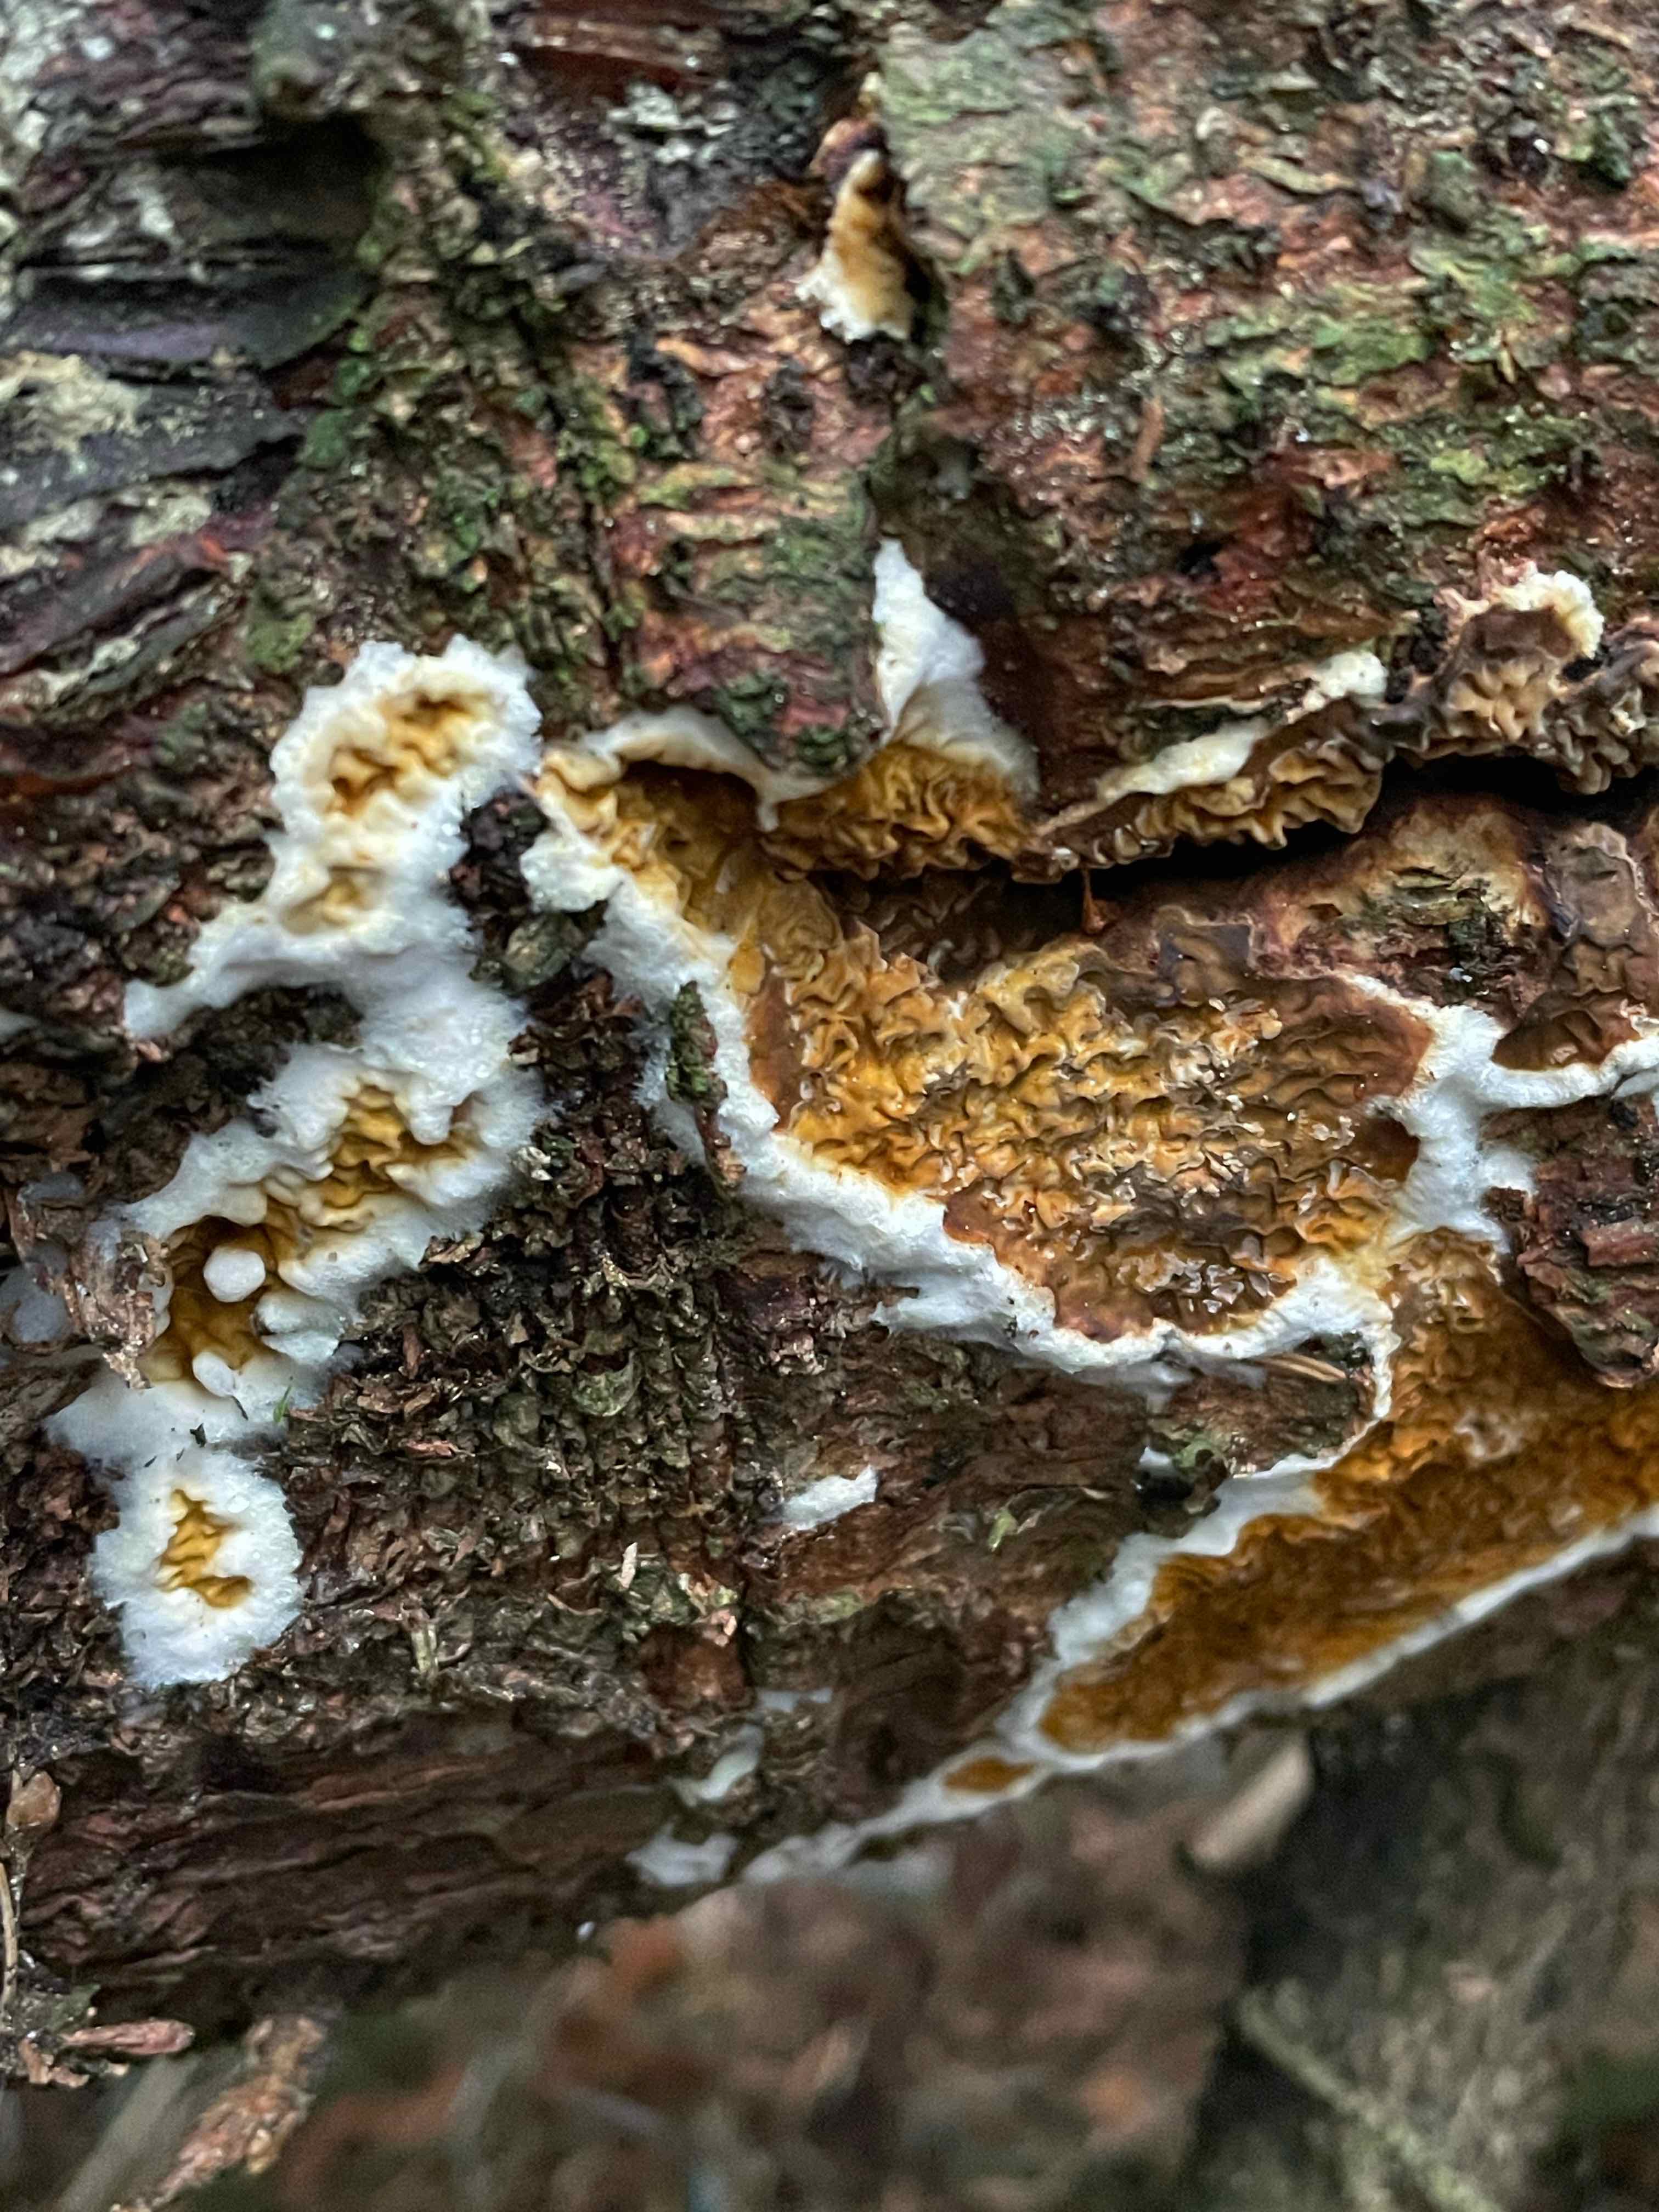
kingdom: Fungi
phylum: Basidiomycota
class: Agaricomycetes
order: Boletales
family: Serpulaceae
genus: Serpula
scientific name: Serpula himantioides
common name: tyndkødet hussvamp
